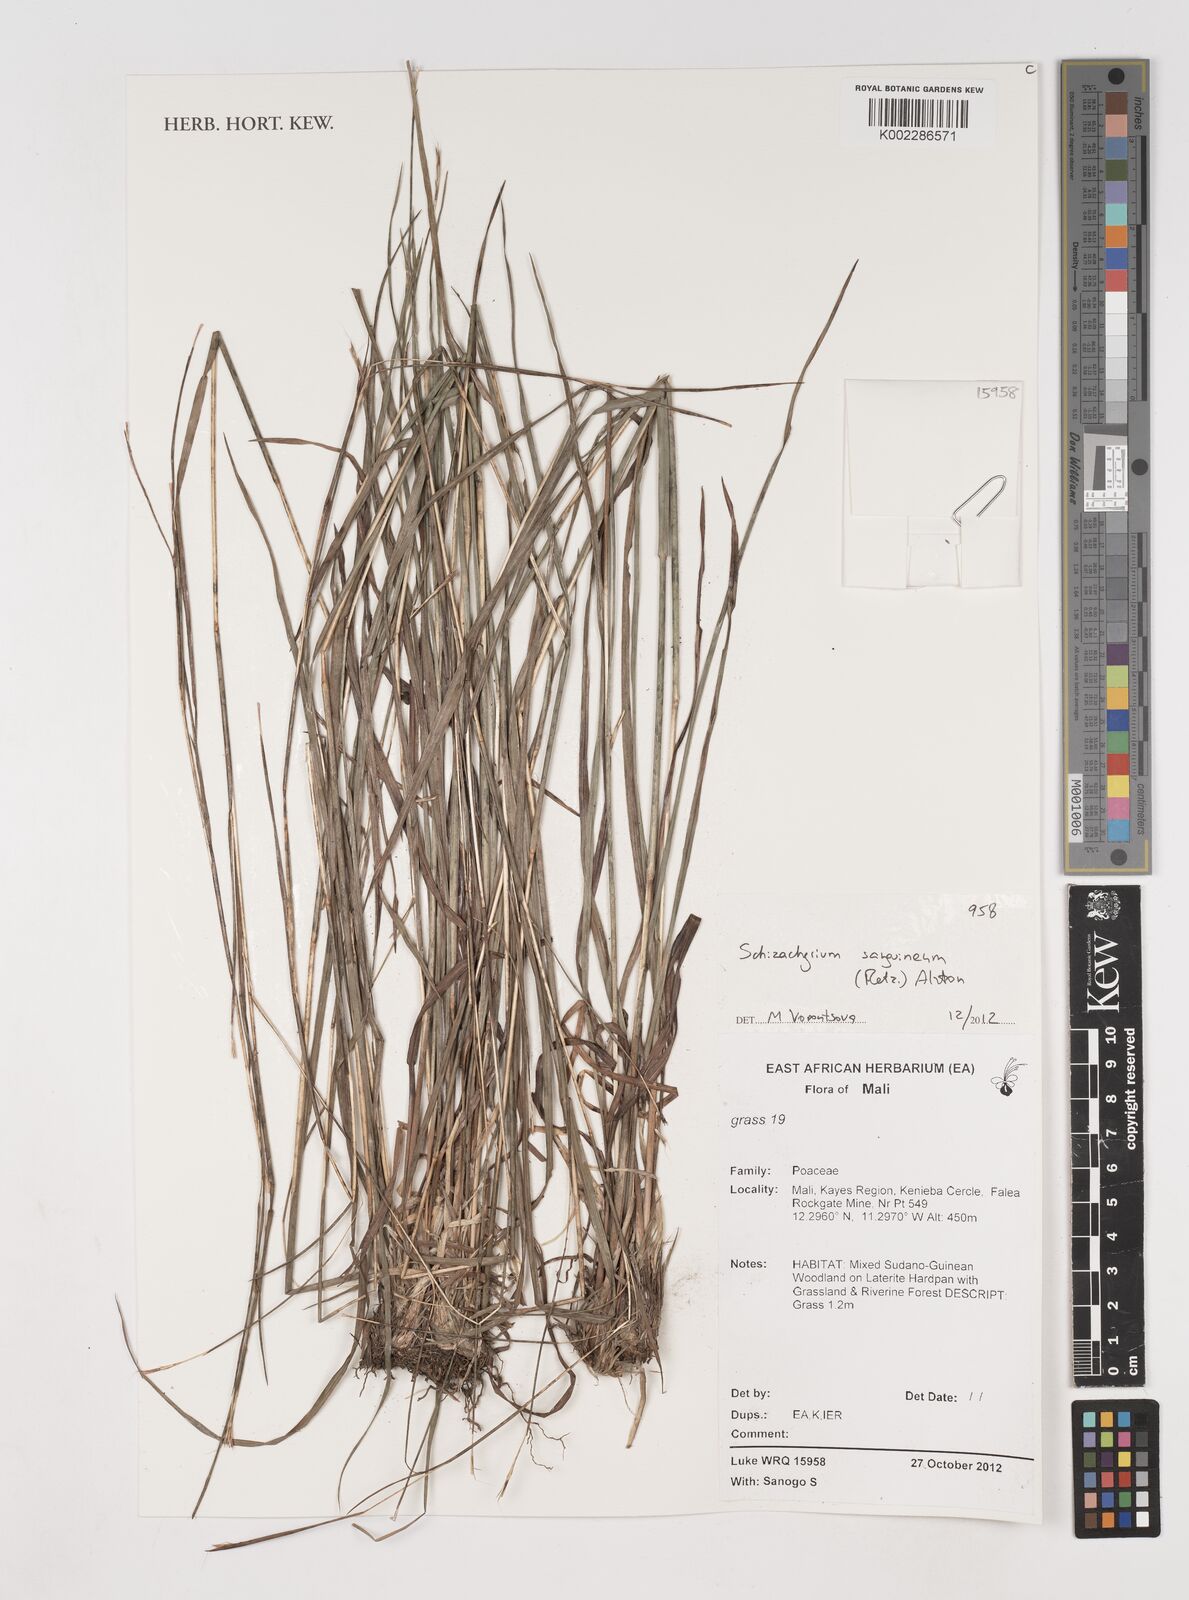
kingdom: Plantae
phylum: Tracheophyta
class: Liliopsida
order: Poales
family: Poaceae
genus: Schizachyrium
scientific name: Schizachyrium sanguineum
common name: Crimson bluestem
